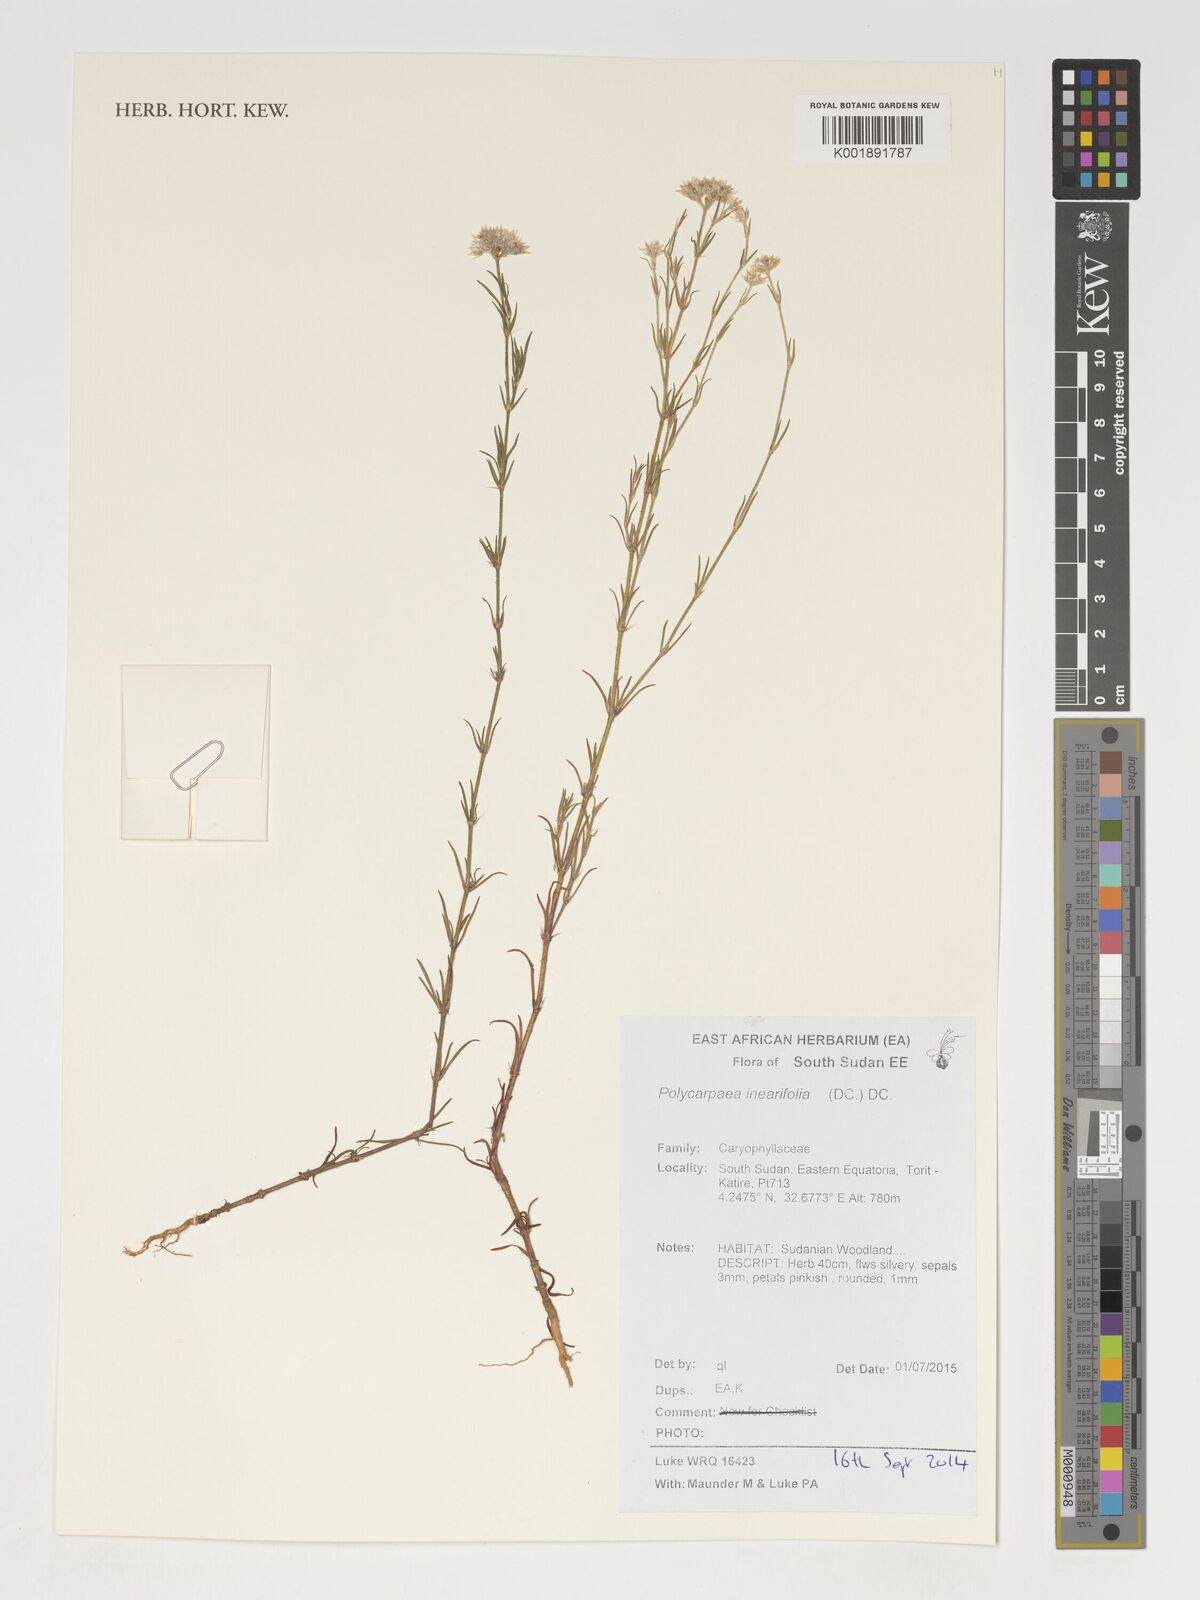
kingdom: Plantae
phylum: Tracheophyta
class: Magnoliopsida
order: Caryophyllales
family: Caryophyllaceae
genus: Polycarpaea
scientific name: Polycarpaea
